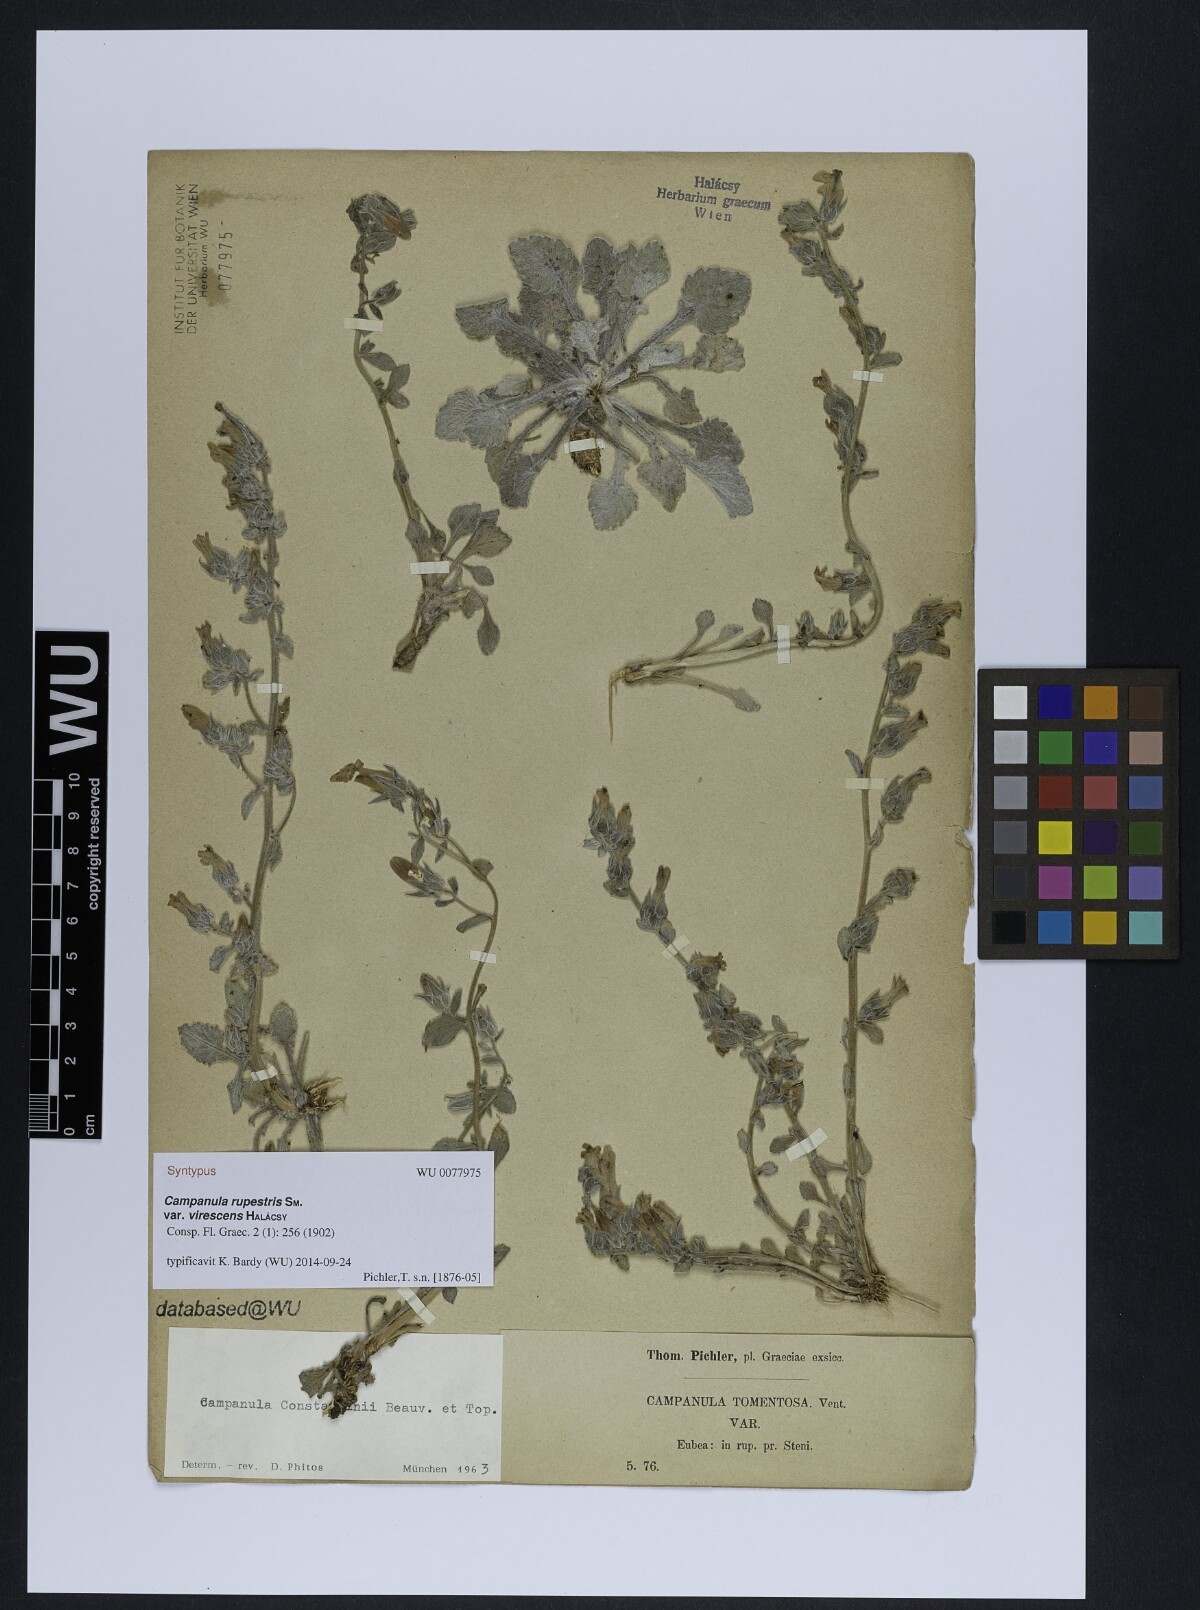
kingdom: Plantae
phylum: Tracheophyta
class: Magnoliopsida
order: Asterales
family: Campanulaceae
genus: Campanula
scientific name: Campanula constantini
